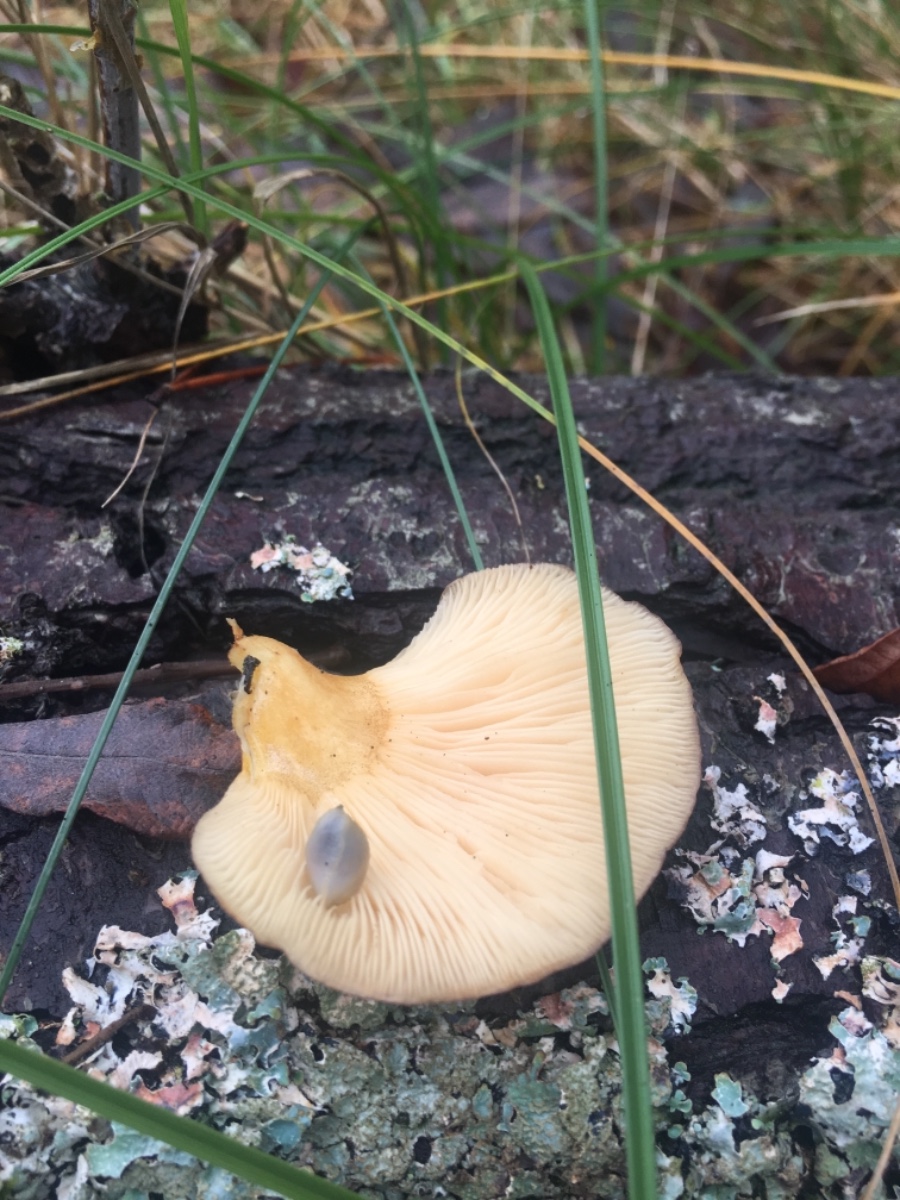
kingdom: Fungi
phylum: Basidiomycota
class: Agaricomycetes
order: Agaricales
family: Sarcomyxaceae
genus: Sarcomyxa
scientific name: Sarcomyxa serotina
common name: gummihat
